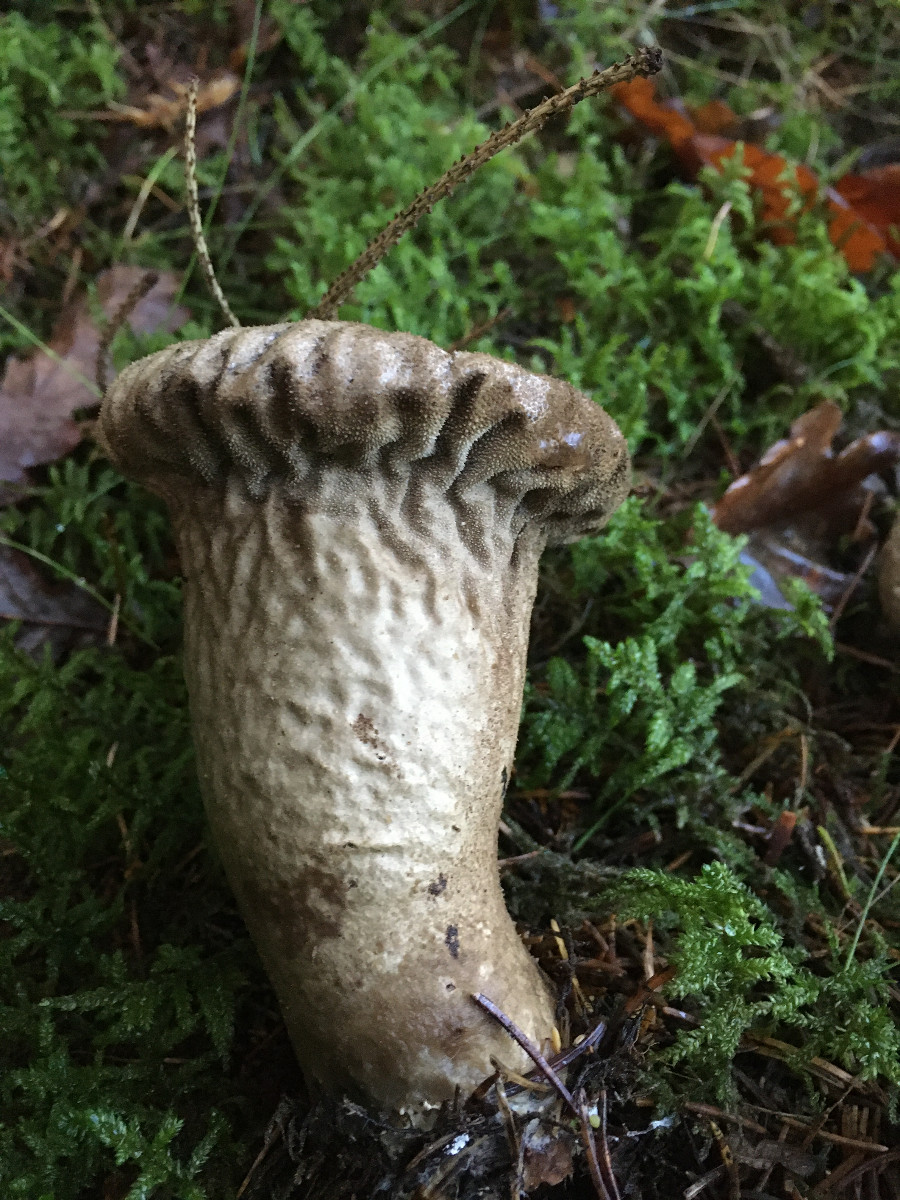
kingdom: Fungi
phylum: Basidiomycota
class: Agaricomycetes
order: Agaricales
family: Lycoperdaceae
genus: Lycoperdon
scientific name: Lycoperdon perlatum
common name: krystal-støvbold
